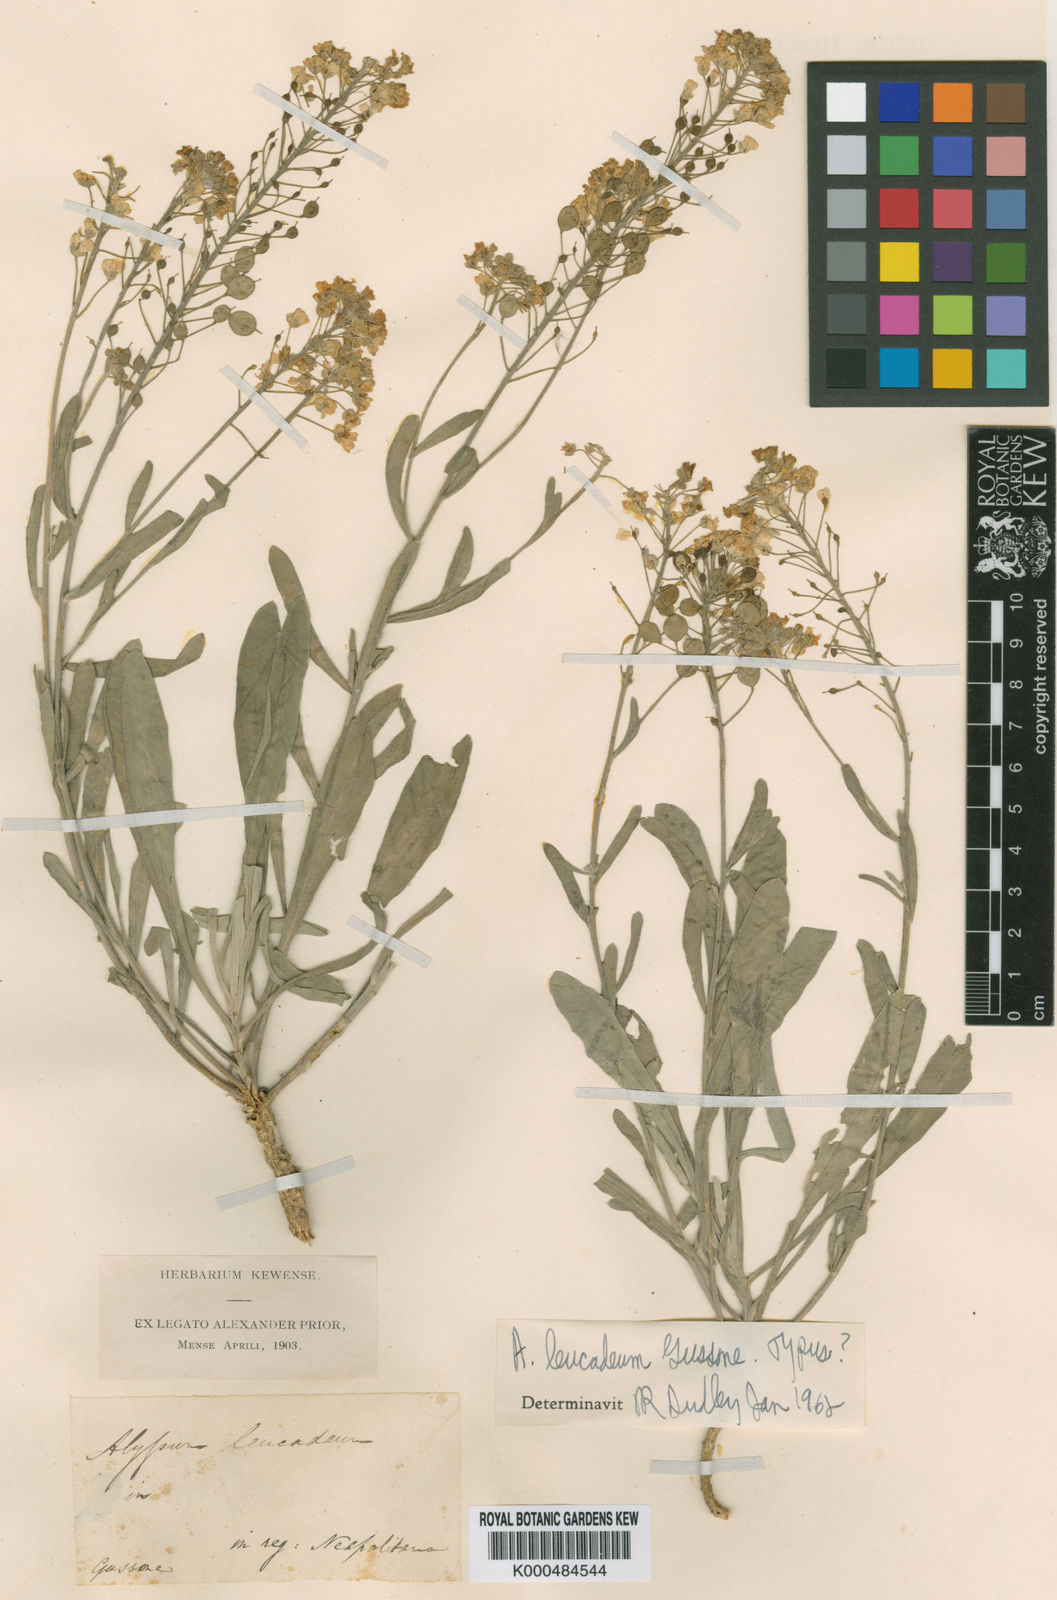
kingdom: Plantae
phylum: Tracheophyta
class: Magnoliopsida
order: Brassicales
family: Brassicaceae
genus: Aurinia
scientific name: Aurinia leucadea
